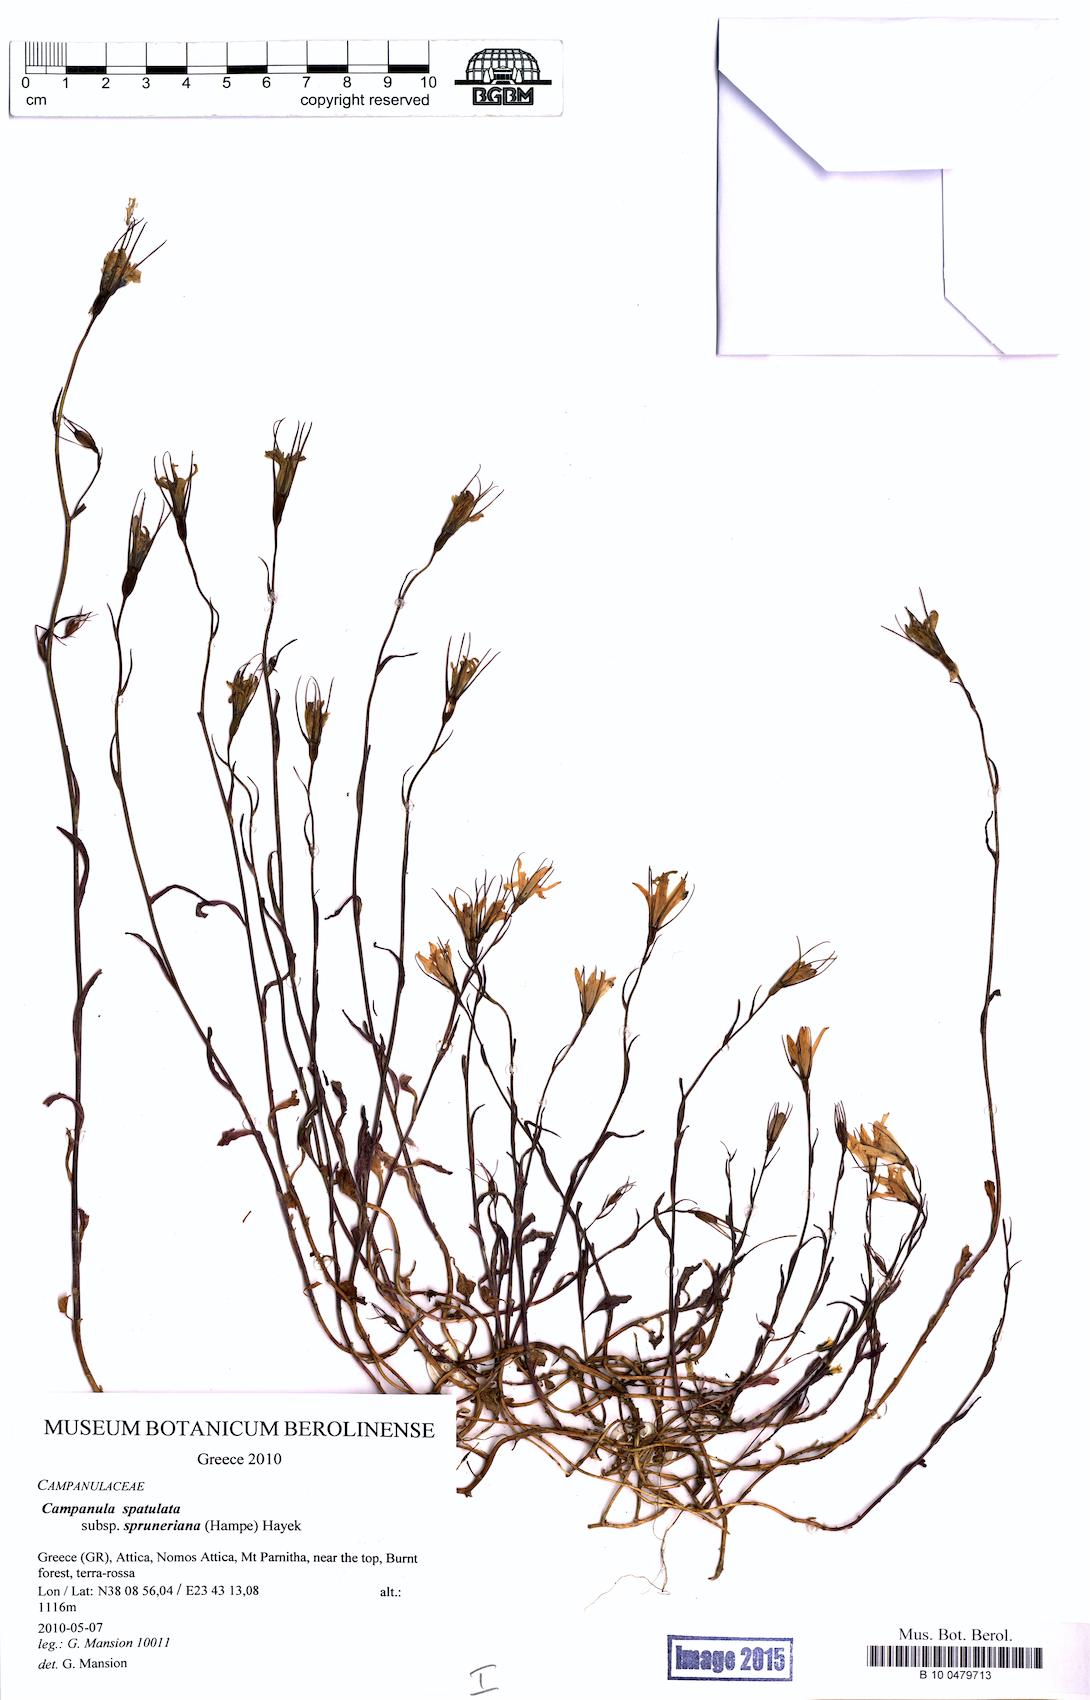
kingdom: Plantae
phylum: Tracheophyta
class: Magnoliopsida
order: Asterales
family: Campanulaceae
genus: Campanula
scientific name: Campanula spatulata
